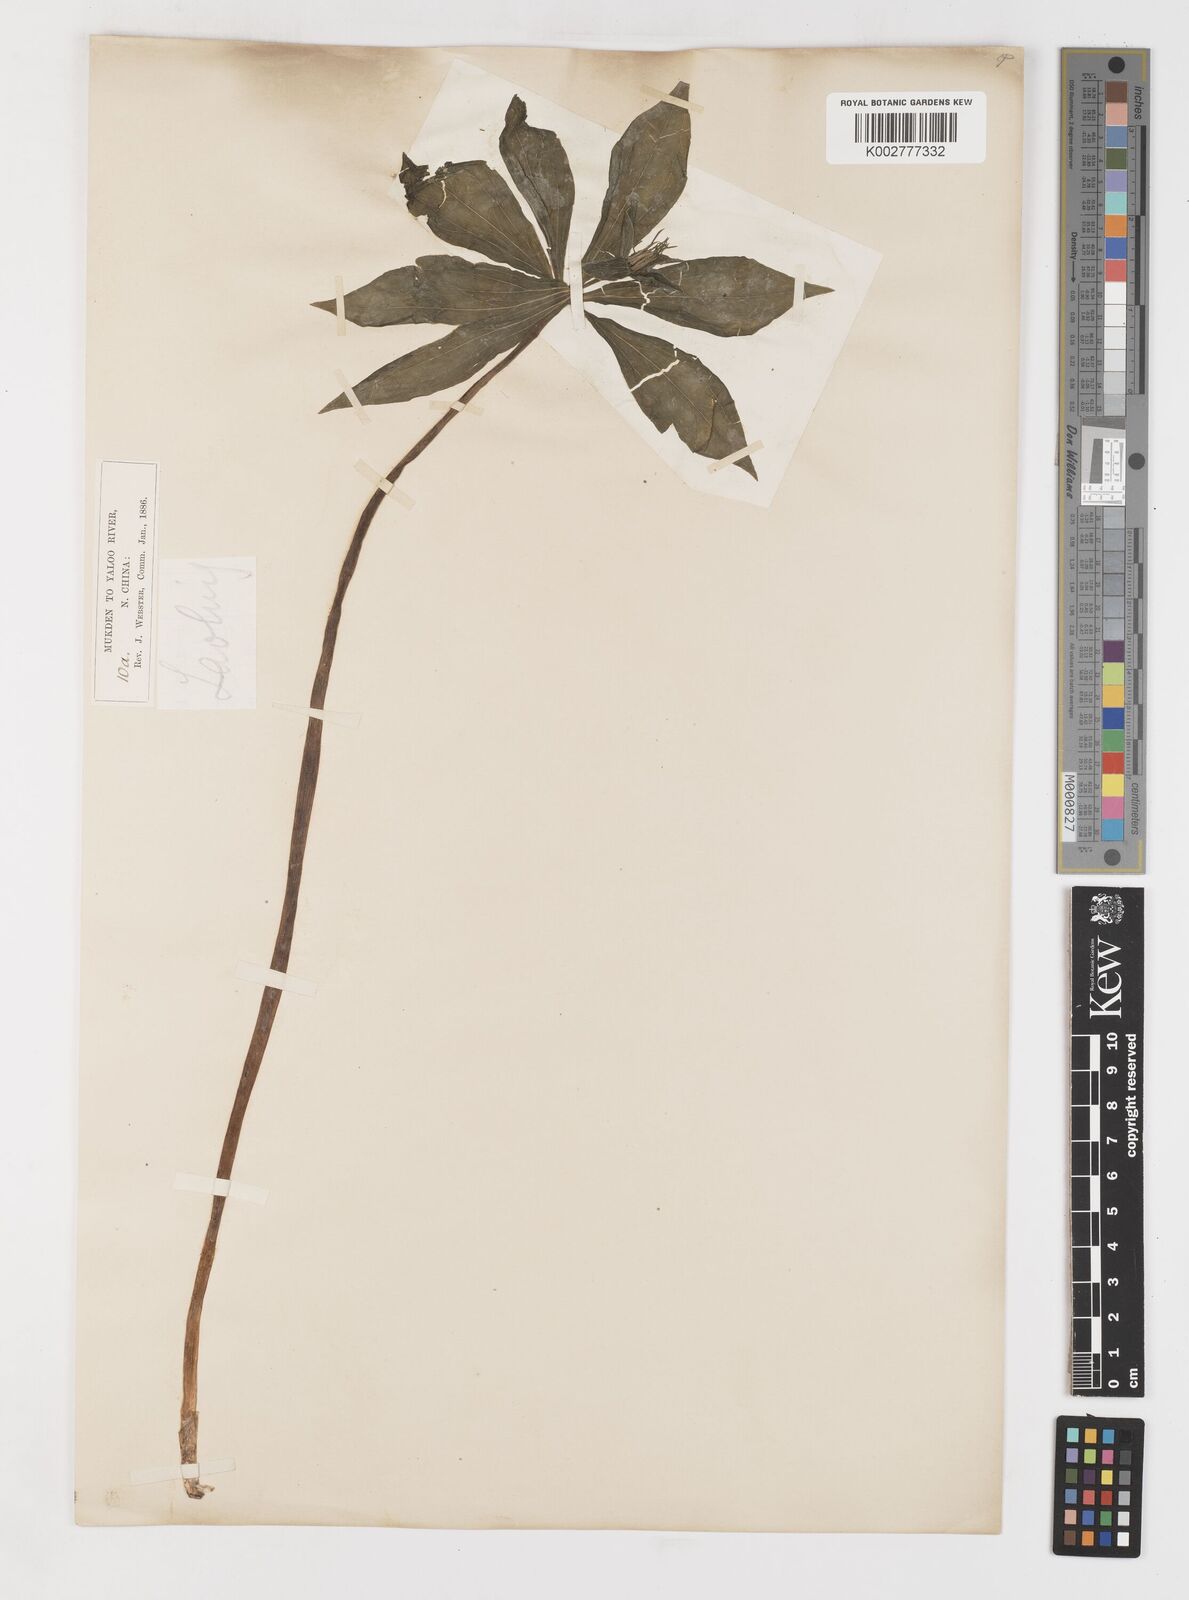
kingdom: Plantae
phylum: Tracheophyta
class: Liliopsida
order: Liliales
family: Melanthiaceae
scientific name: Melanthiaceae
